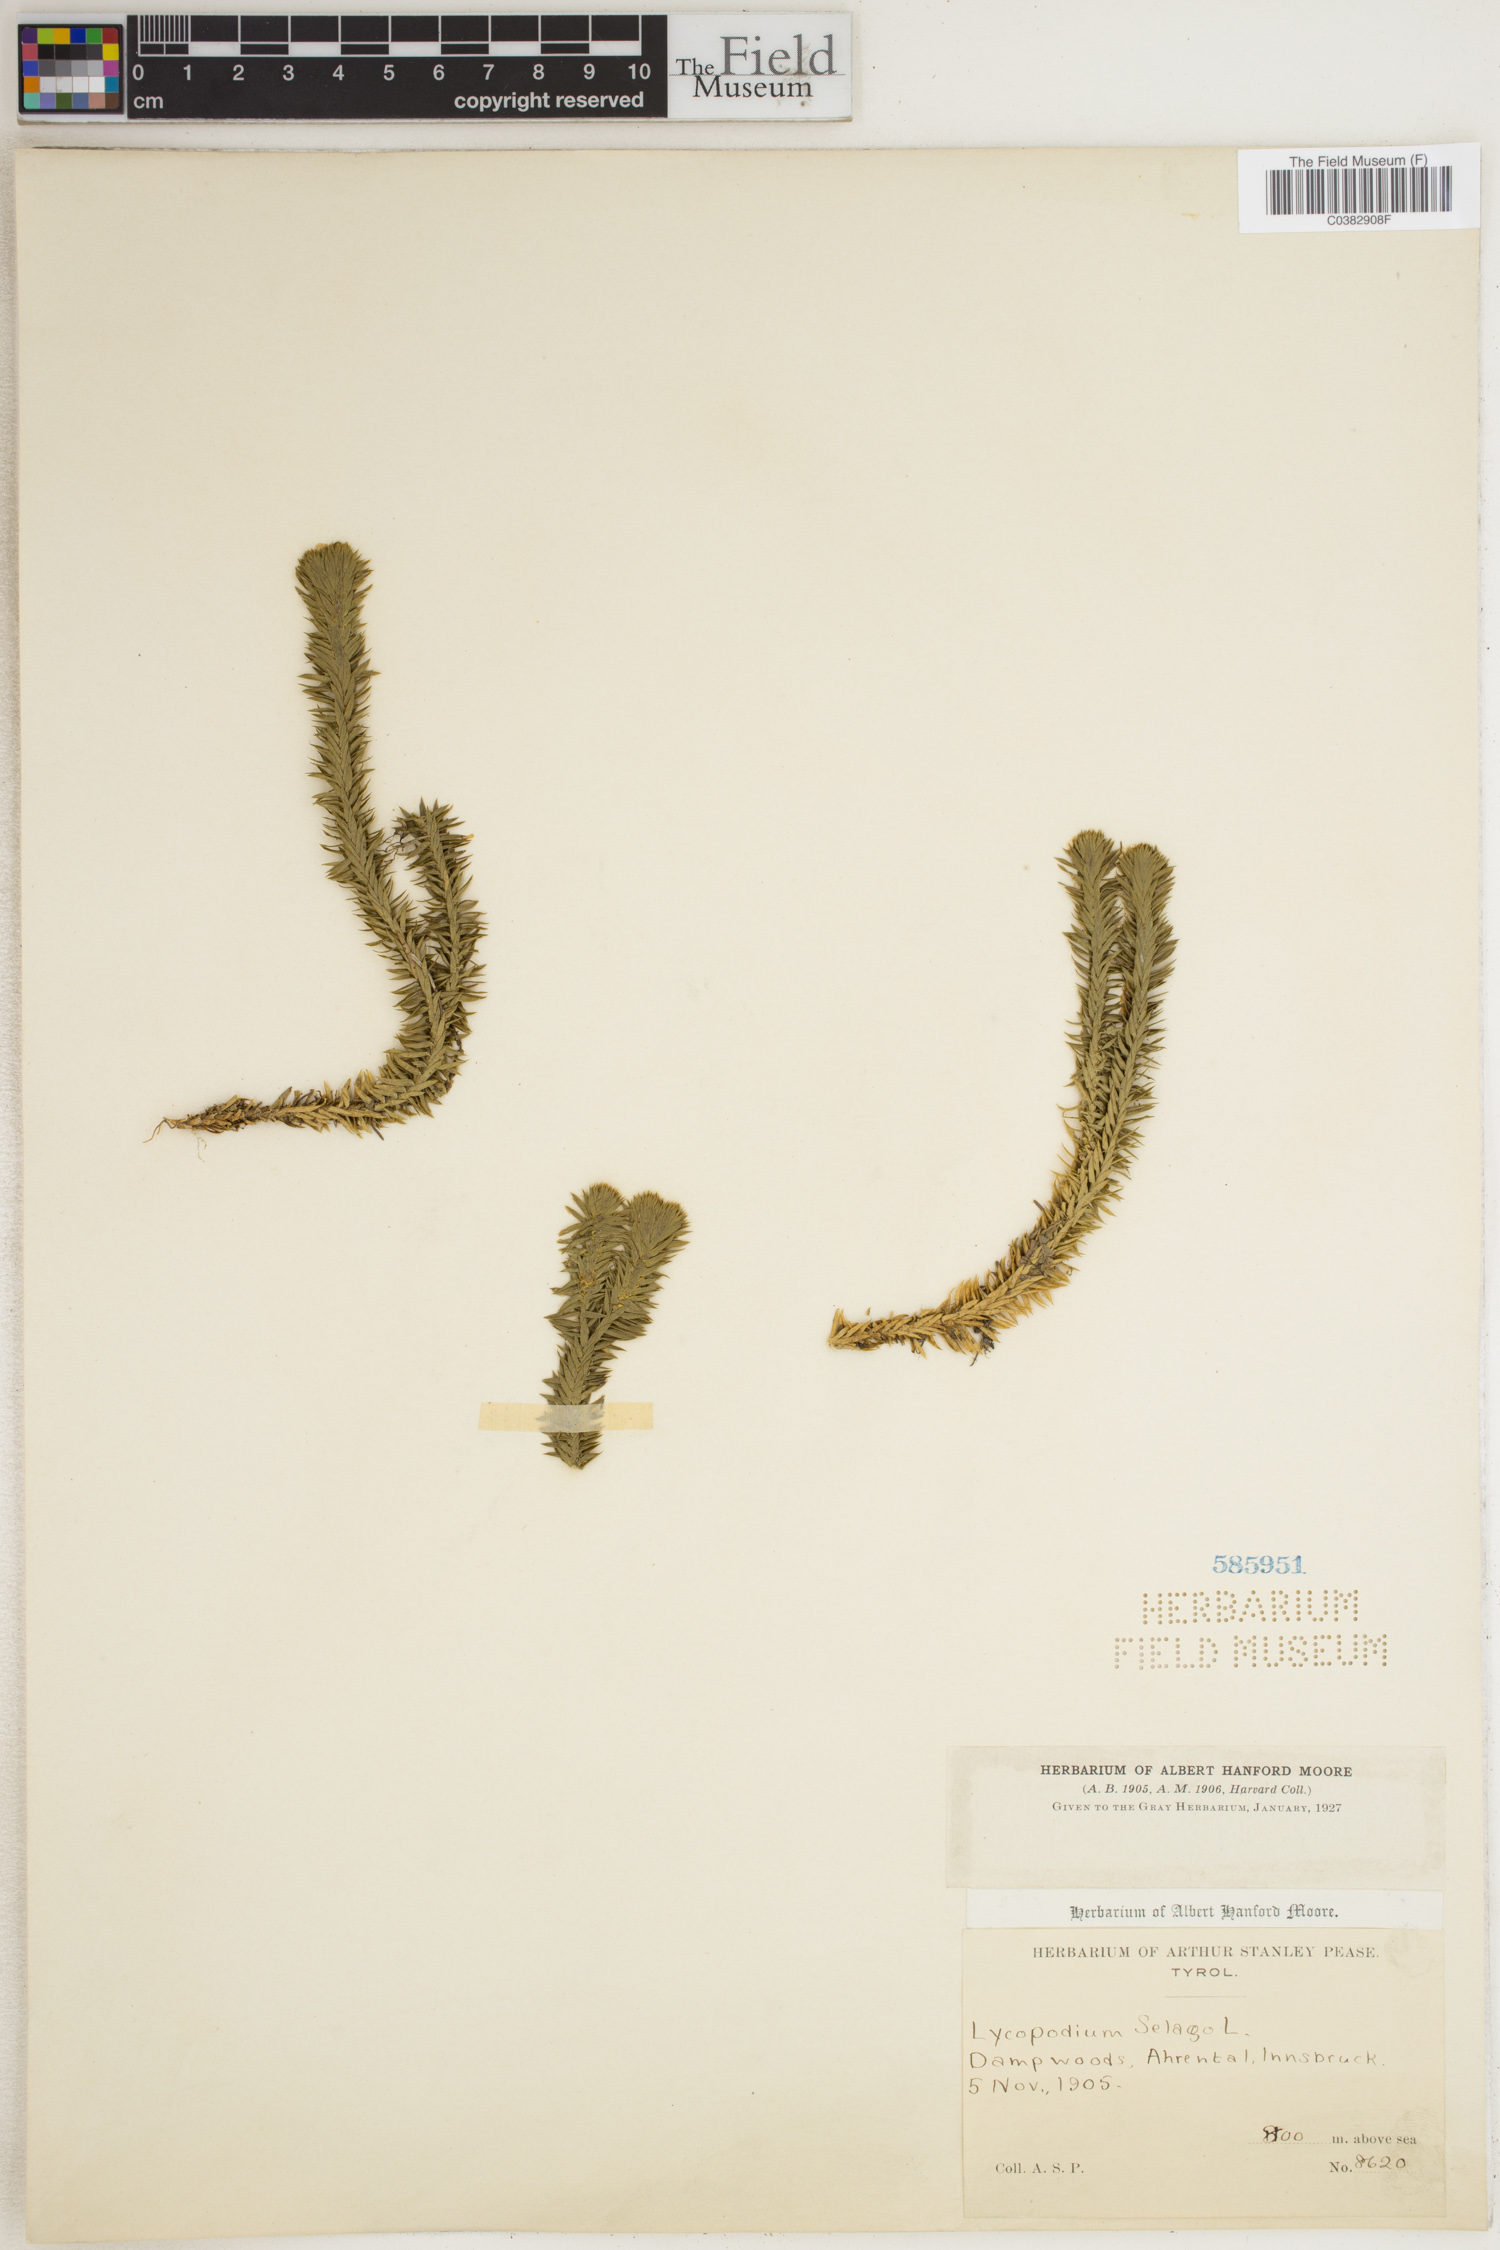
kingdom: Plantae
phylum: Tracheophyta
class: Lycopodiopsida
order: Lycopodiales
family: Lycopodiaceae
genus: Huperzia
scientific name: Huperzia selago
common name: Northern firmoss
